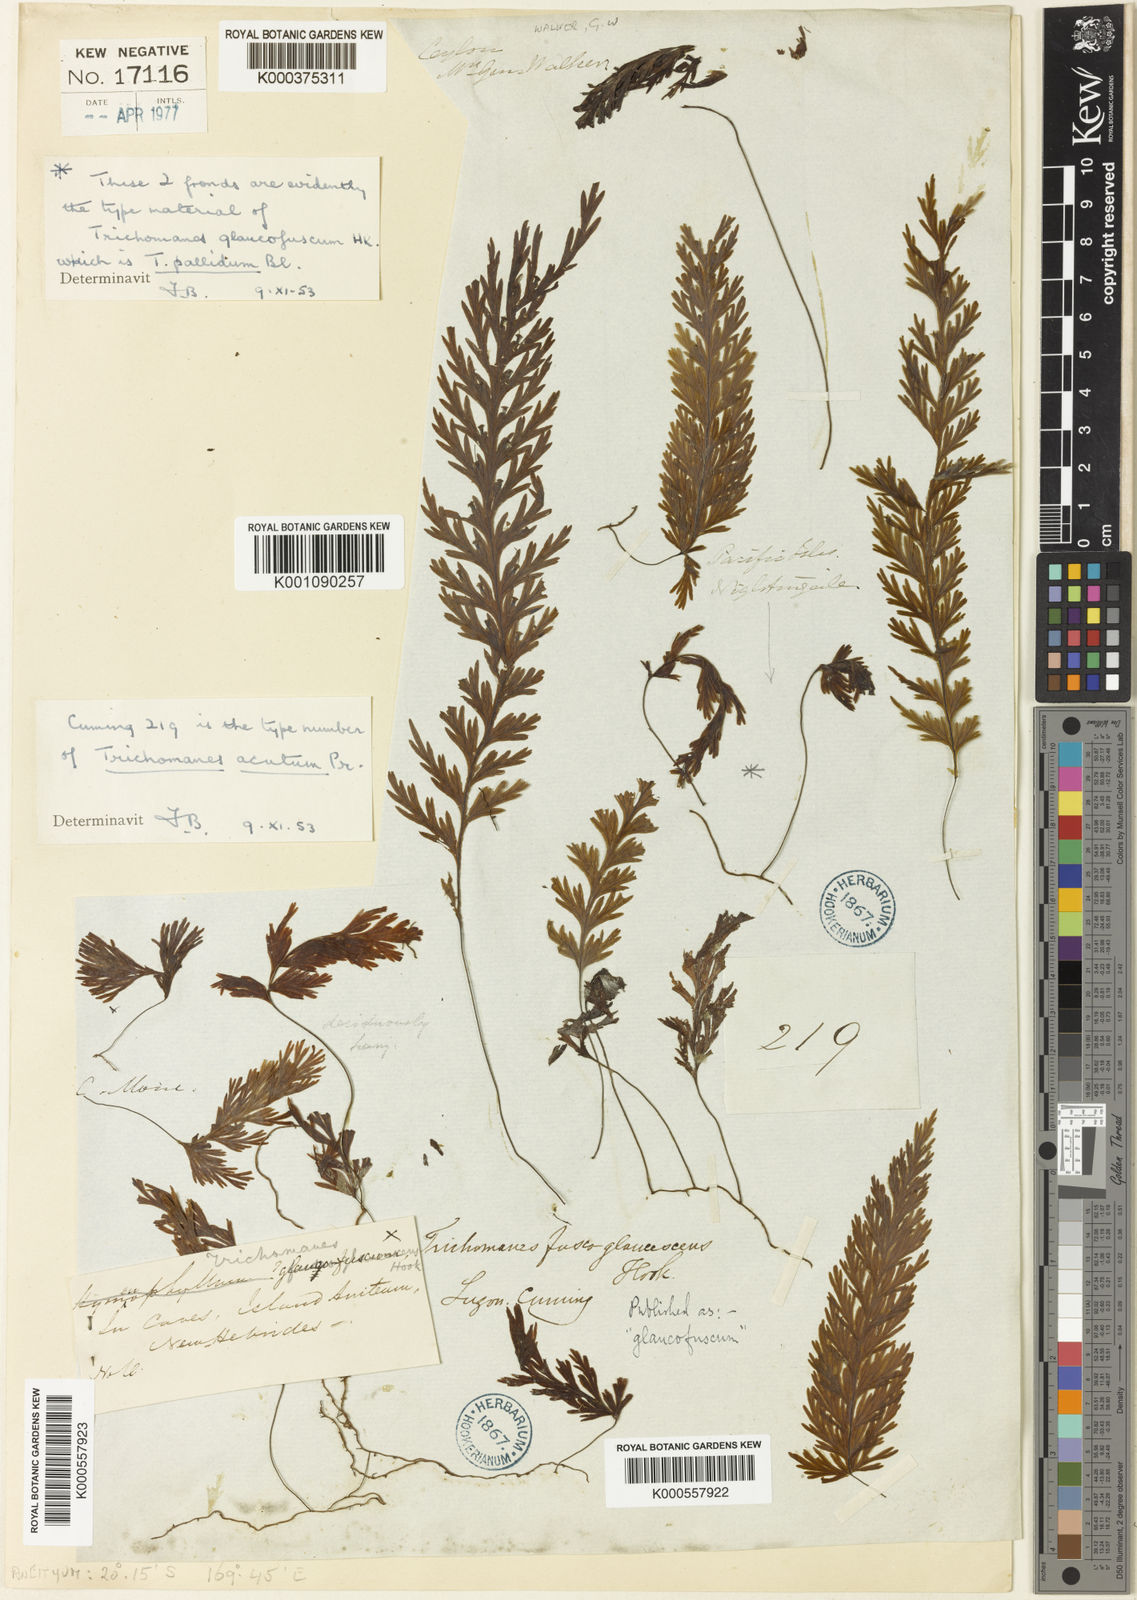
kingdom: Plantae
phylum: Tracheophyta
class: Polypodiopsida
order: Hymenophyllales
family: Hymenophyllaceae
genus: Hymenophyllum
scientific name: Hymenophyllum acutum
